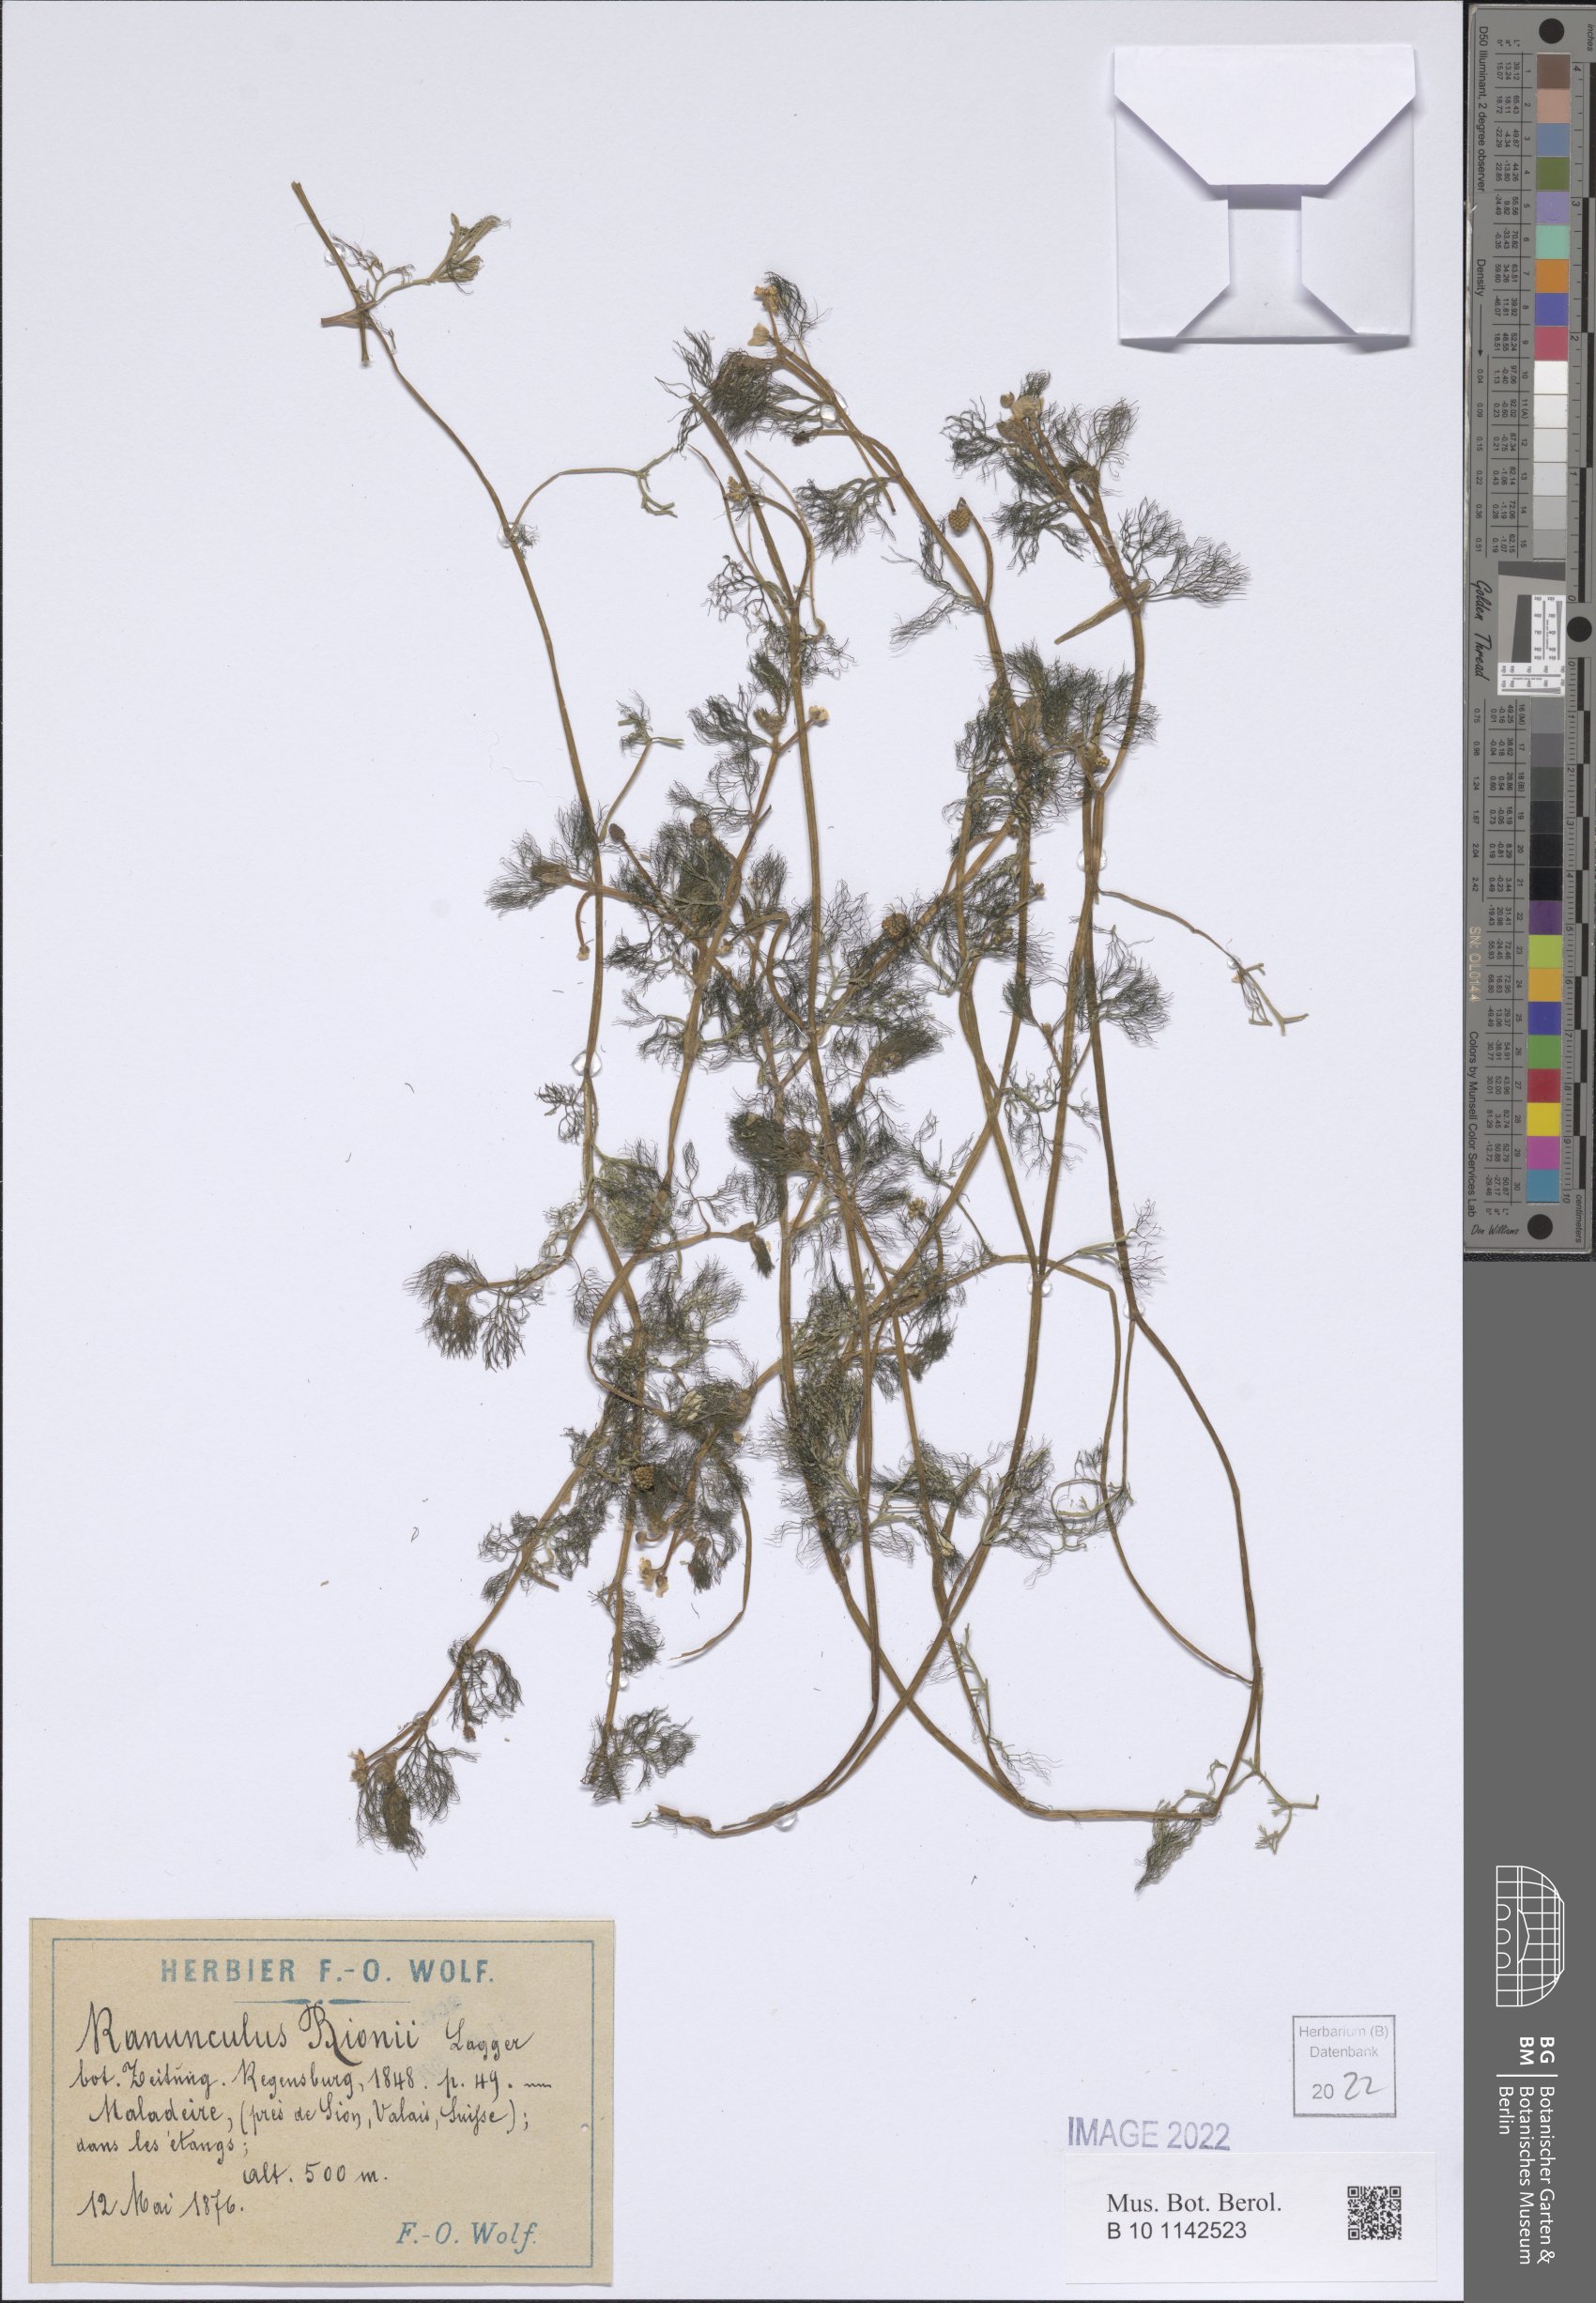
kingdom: Plantae
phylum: Tracheophyta
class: Magnoliopsida
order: Ranunculales
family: Ranunculaceae
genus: Ranunculus
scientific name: Ranunculus rionii
